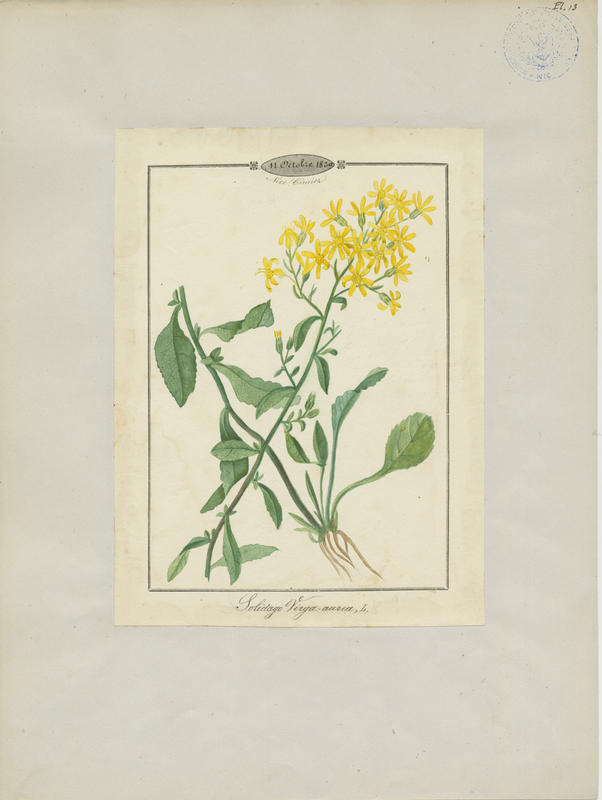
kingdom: Plantae
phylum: Tracheophyta
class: Magnoliopsida
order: Asterales
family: Asteraceae
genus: Solidago
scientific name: Solidago virgaurea
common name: Goldenrod
